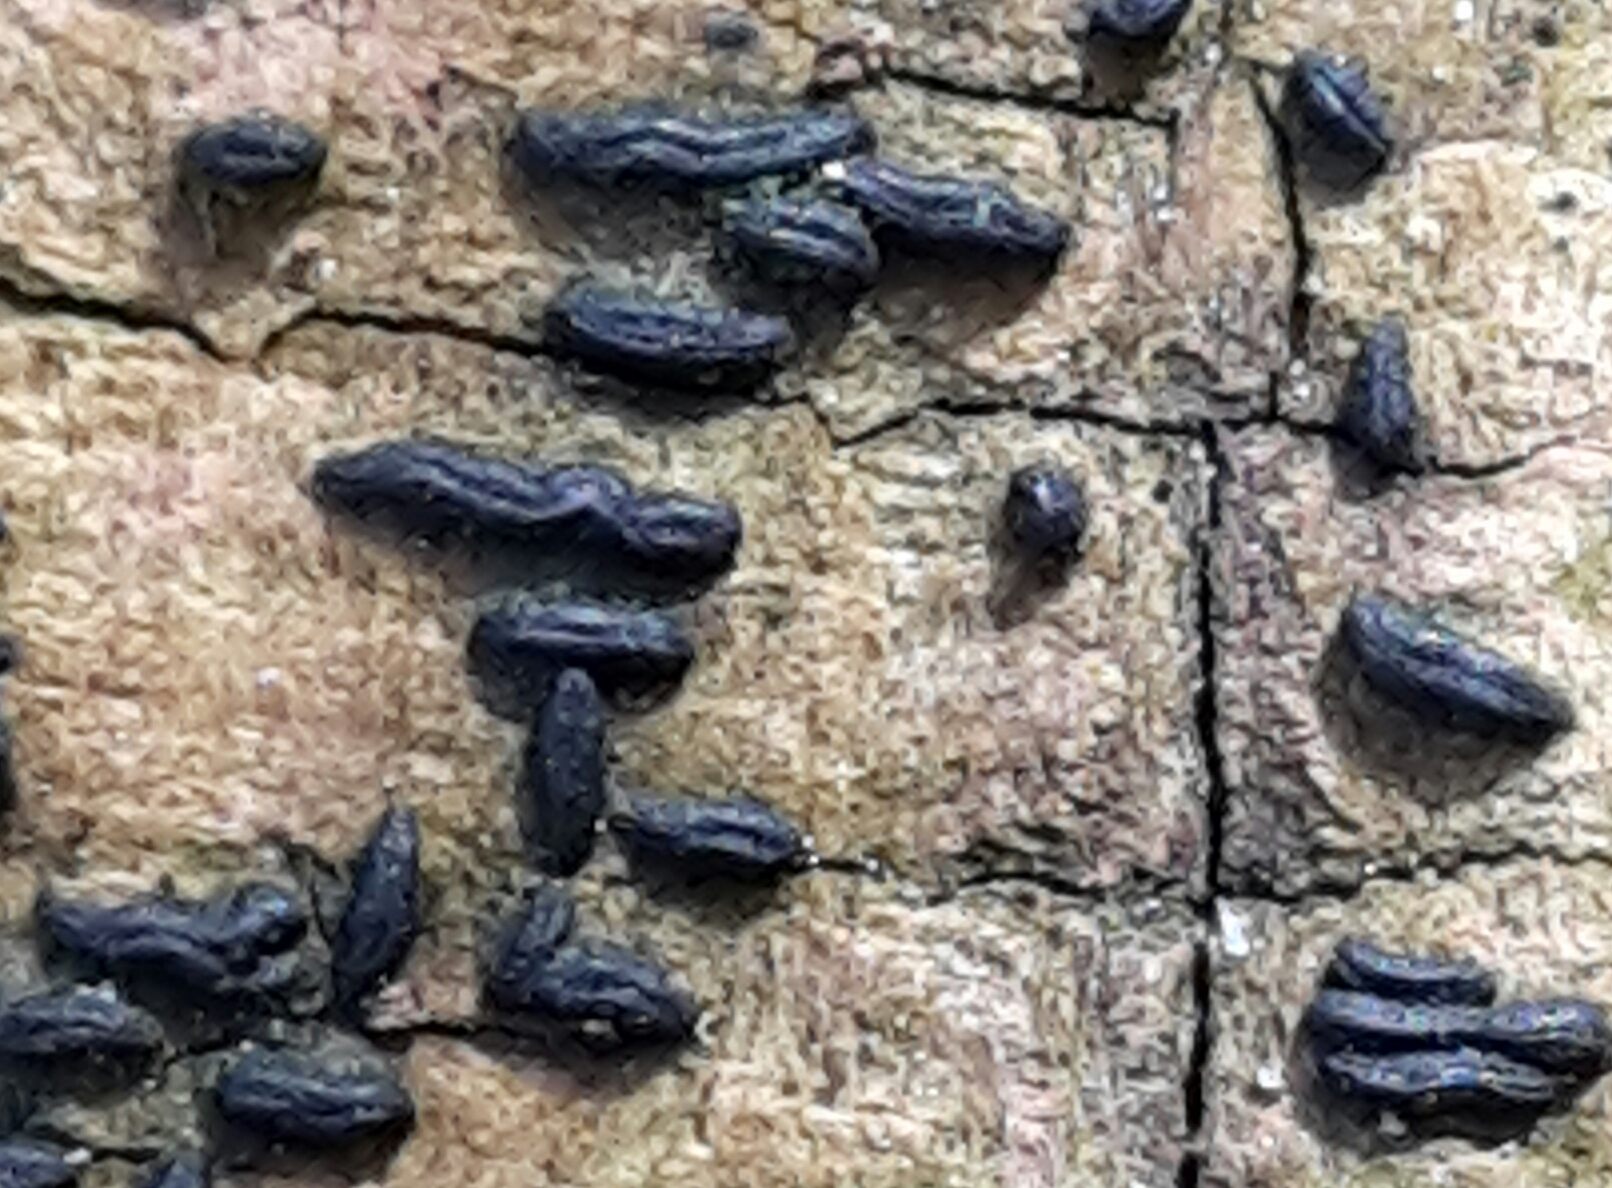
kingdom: Fungi
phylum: Ascomycota
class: Dothideomycetes
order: Hysteriales
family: Hysteriaceae
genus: Hysterium
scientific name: Hysterium
